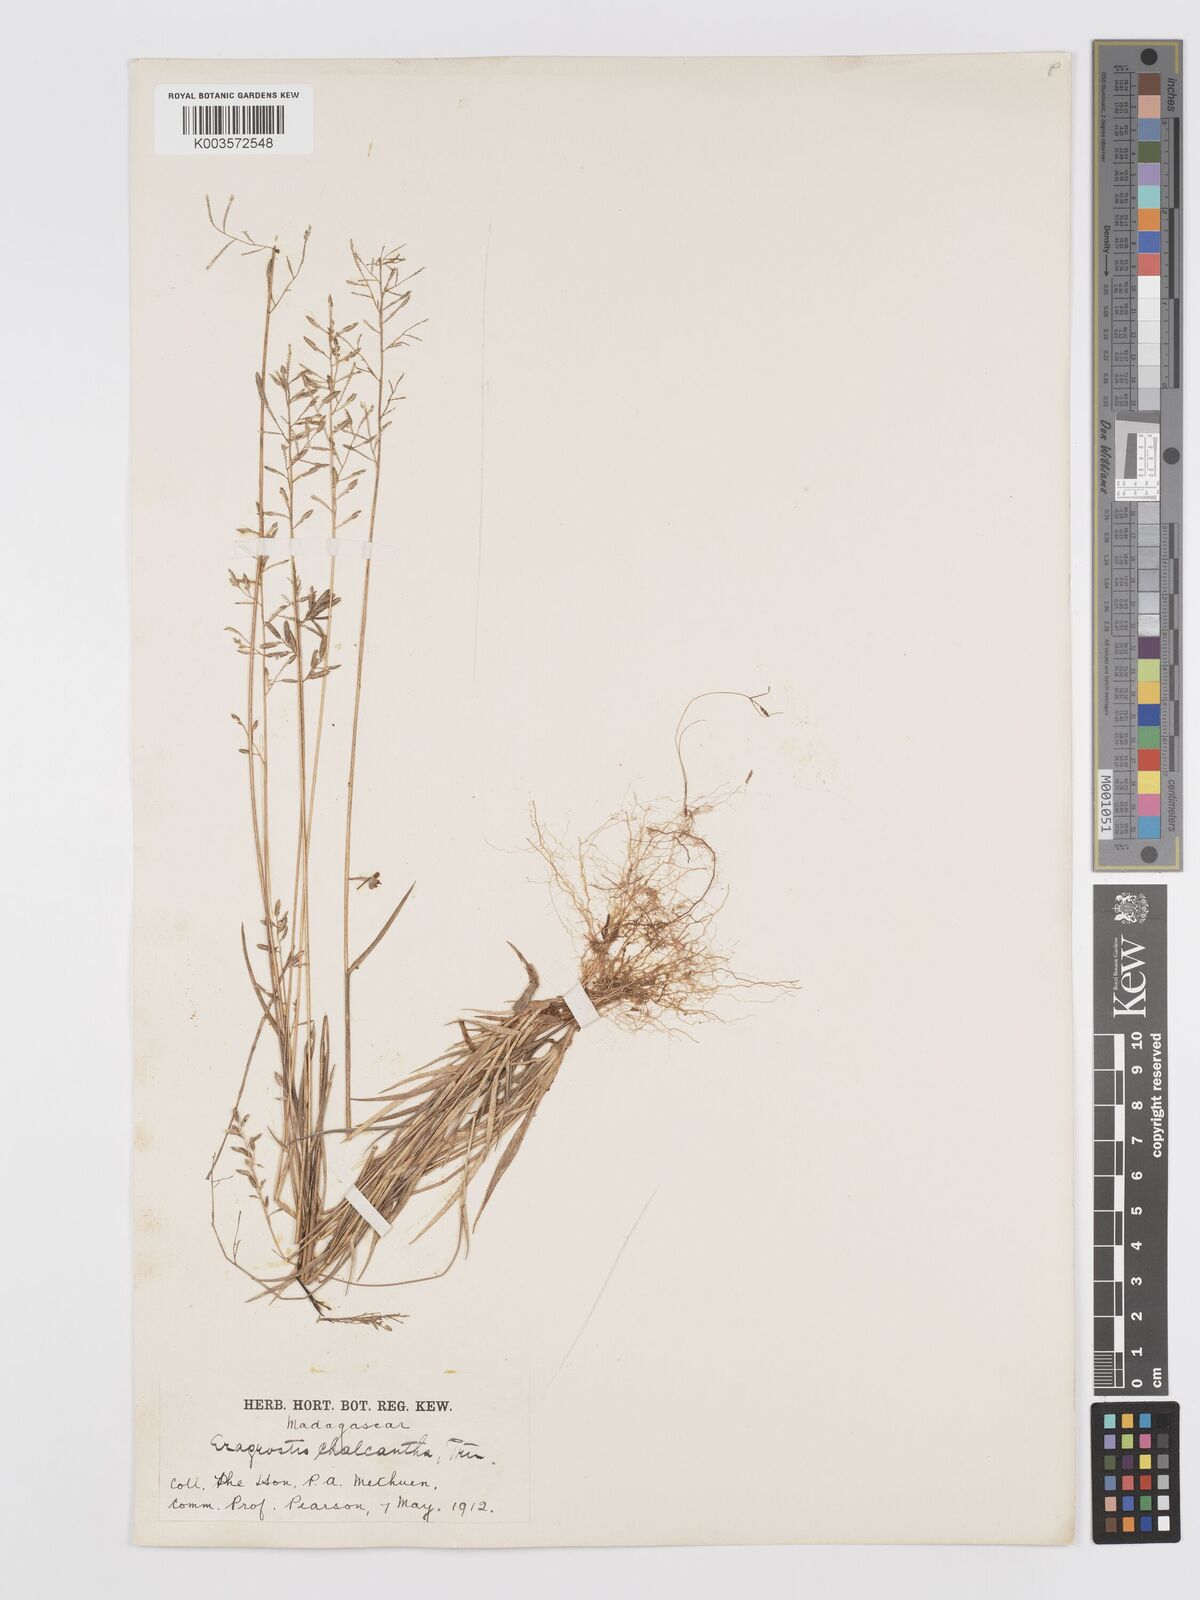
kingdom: Plantae
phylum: Tracheophyta
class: Liliopsida
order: Poales
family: Poaceae
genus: Eragrostis
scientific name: Eragrostis lateritica
